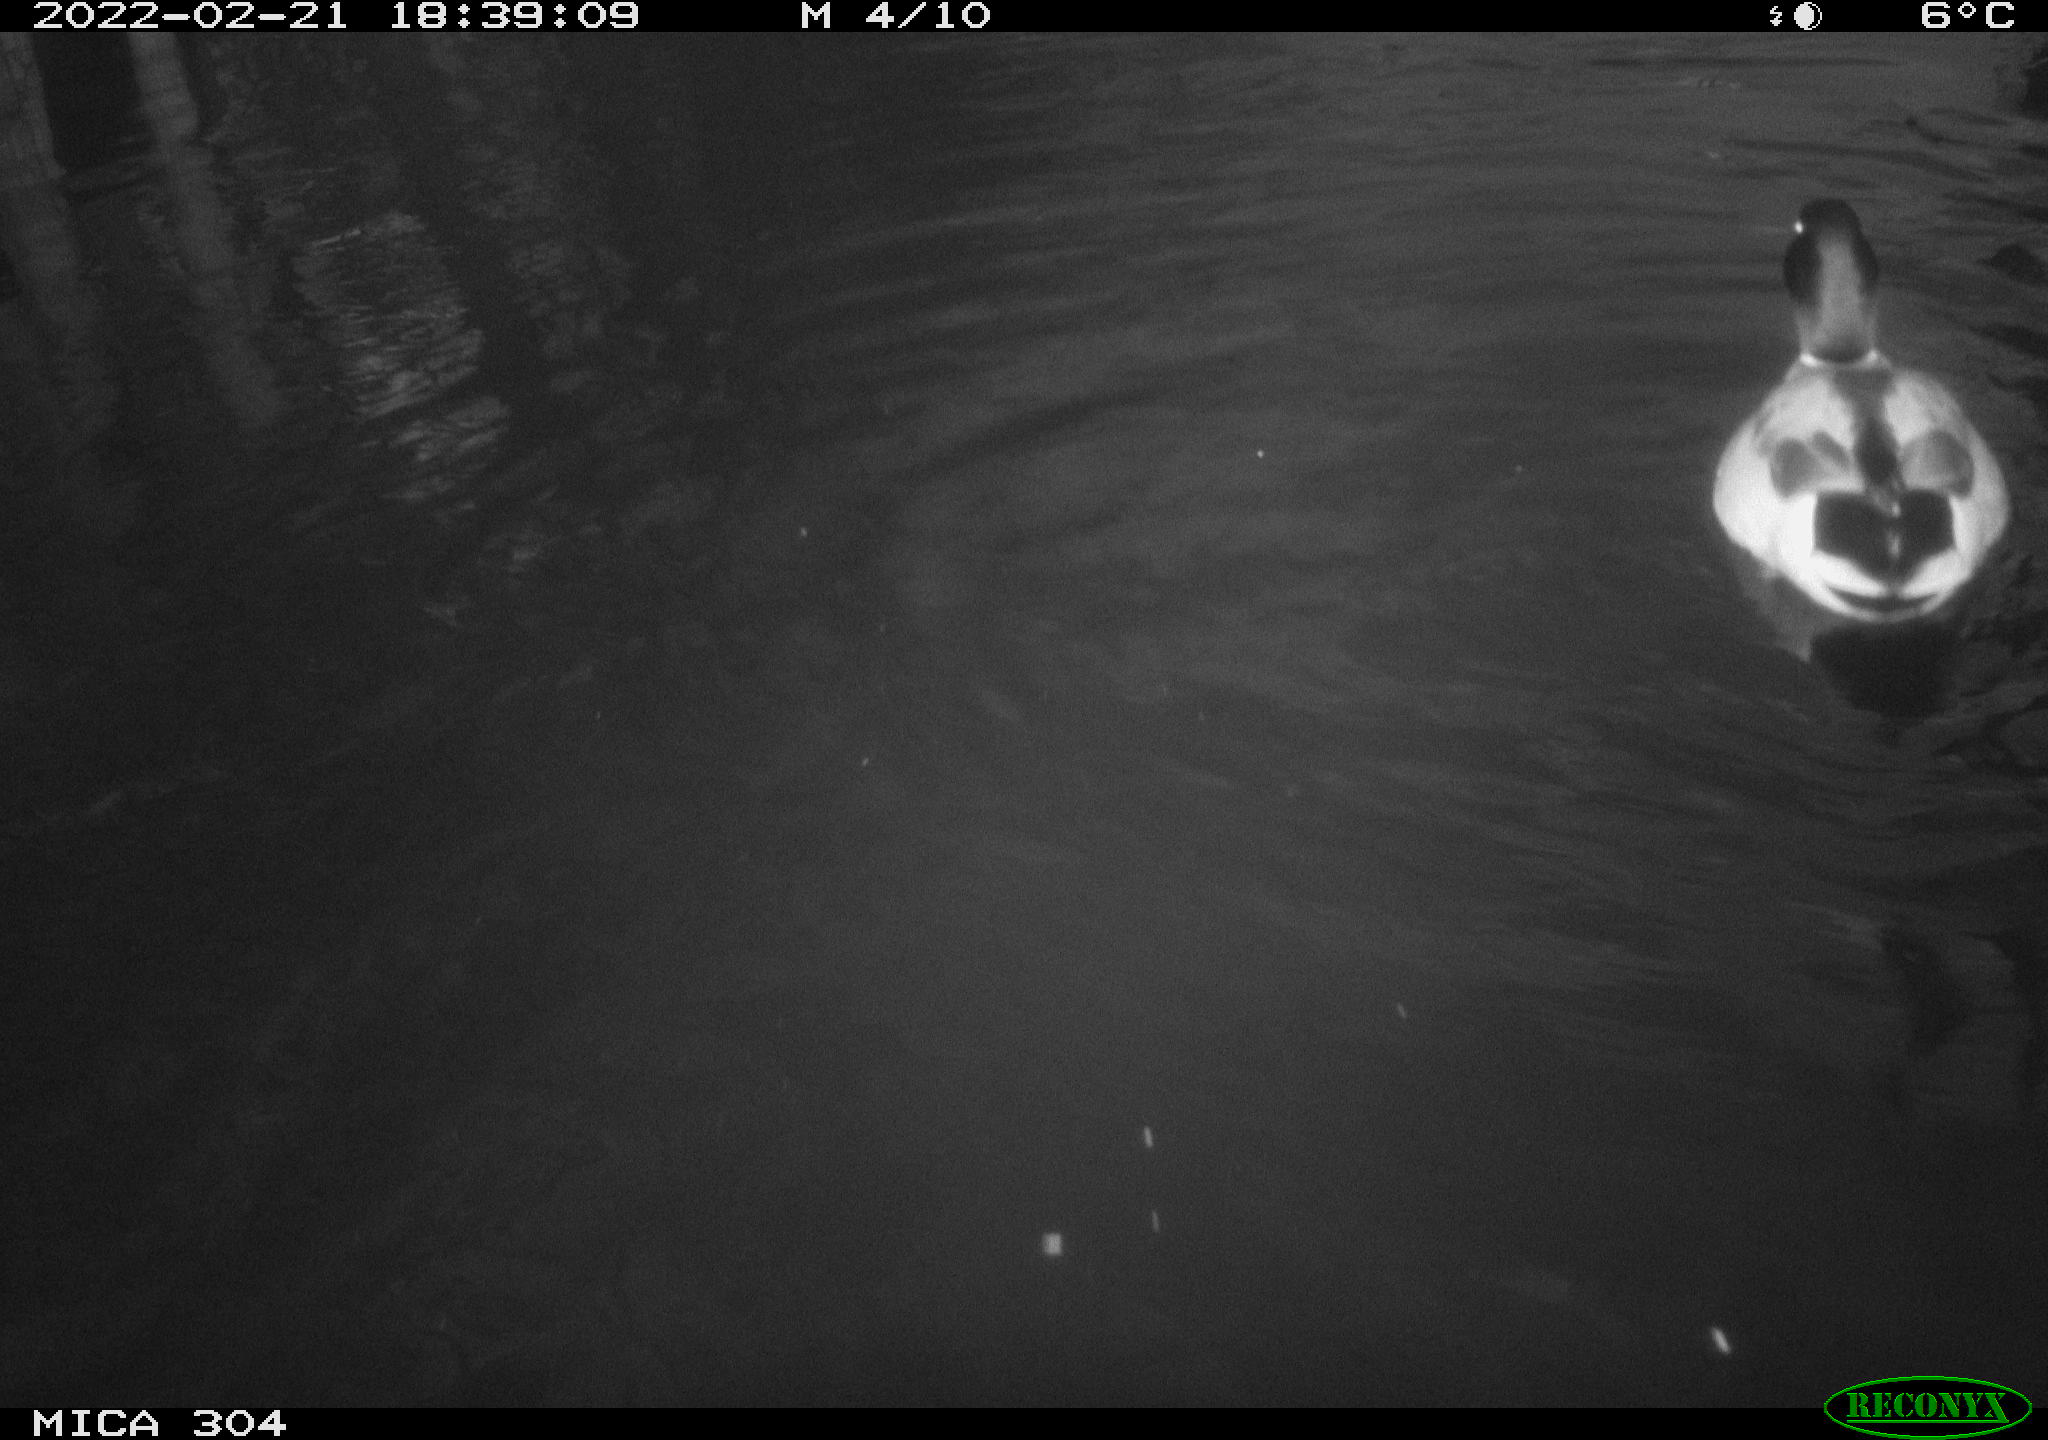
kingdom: Animalia
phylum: Chordata
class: Aves
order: Anseriformes
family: Anatidae
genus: Anas
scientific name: Anas platyrhynchos
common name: Mallard
